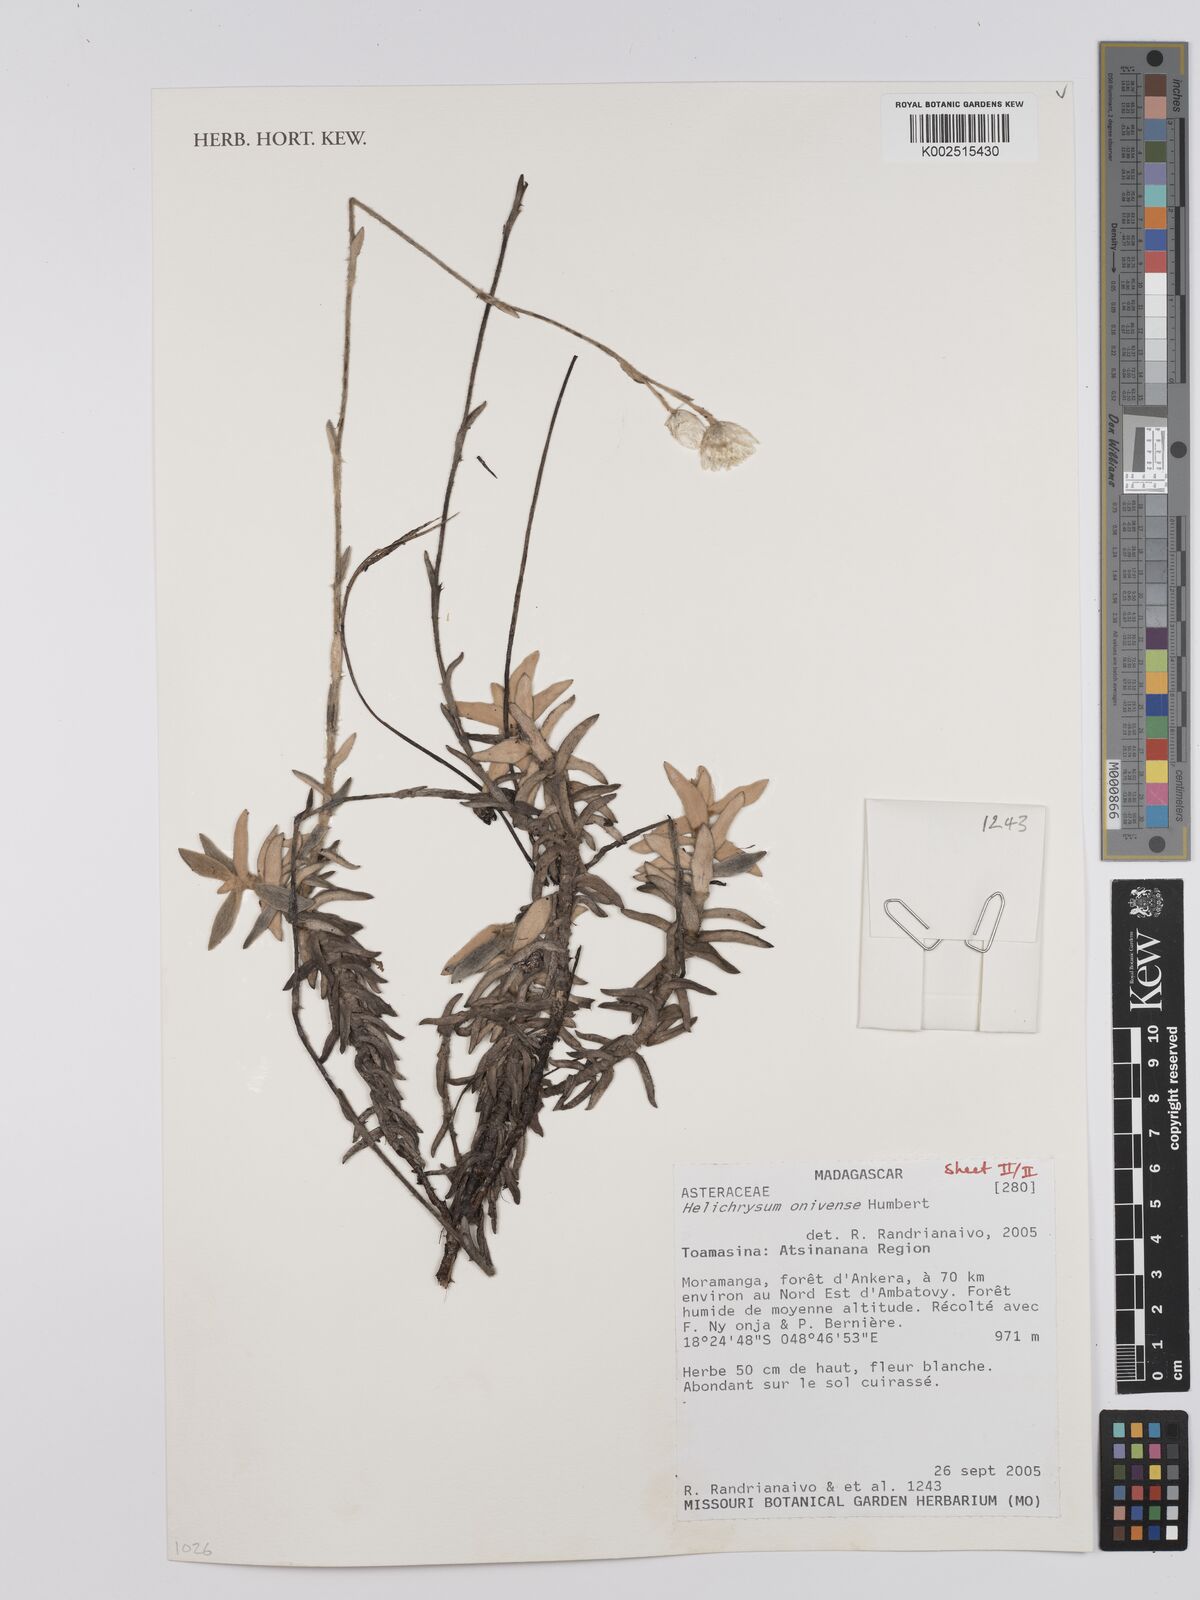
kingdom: Plantae
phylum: Tracheophyta
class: Magnoliopsida
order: Asterales
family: Asteraceae
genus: Helichrysum
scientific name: Helichrysum onivense
